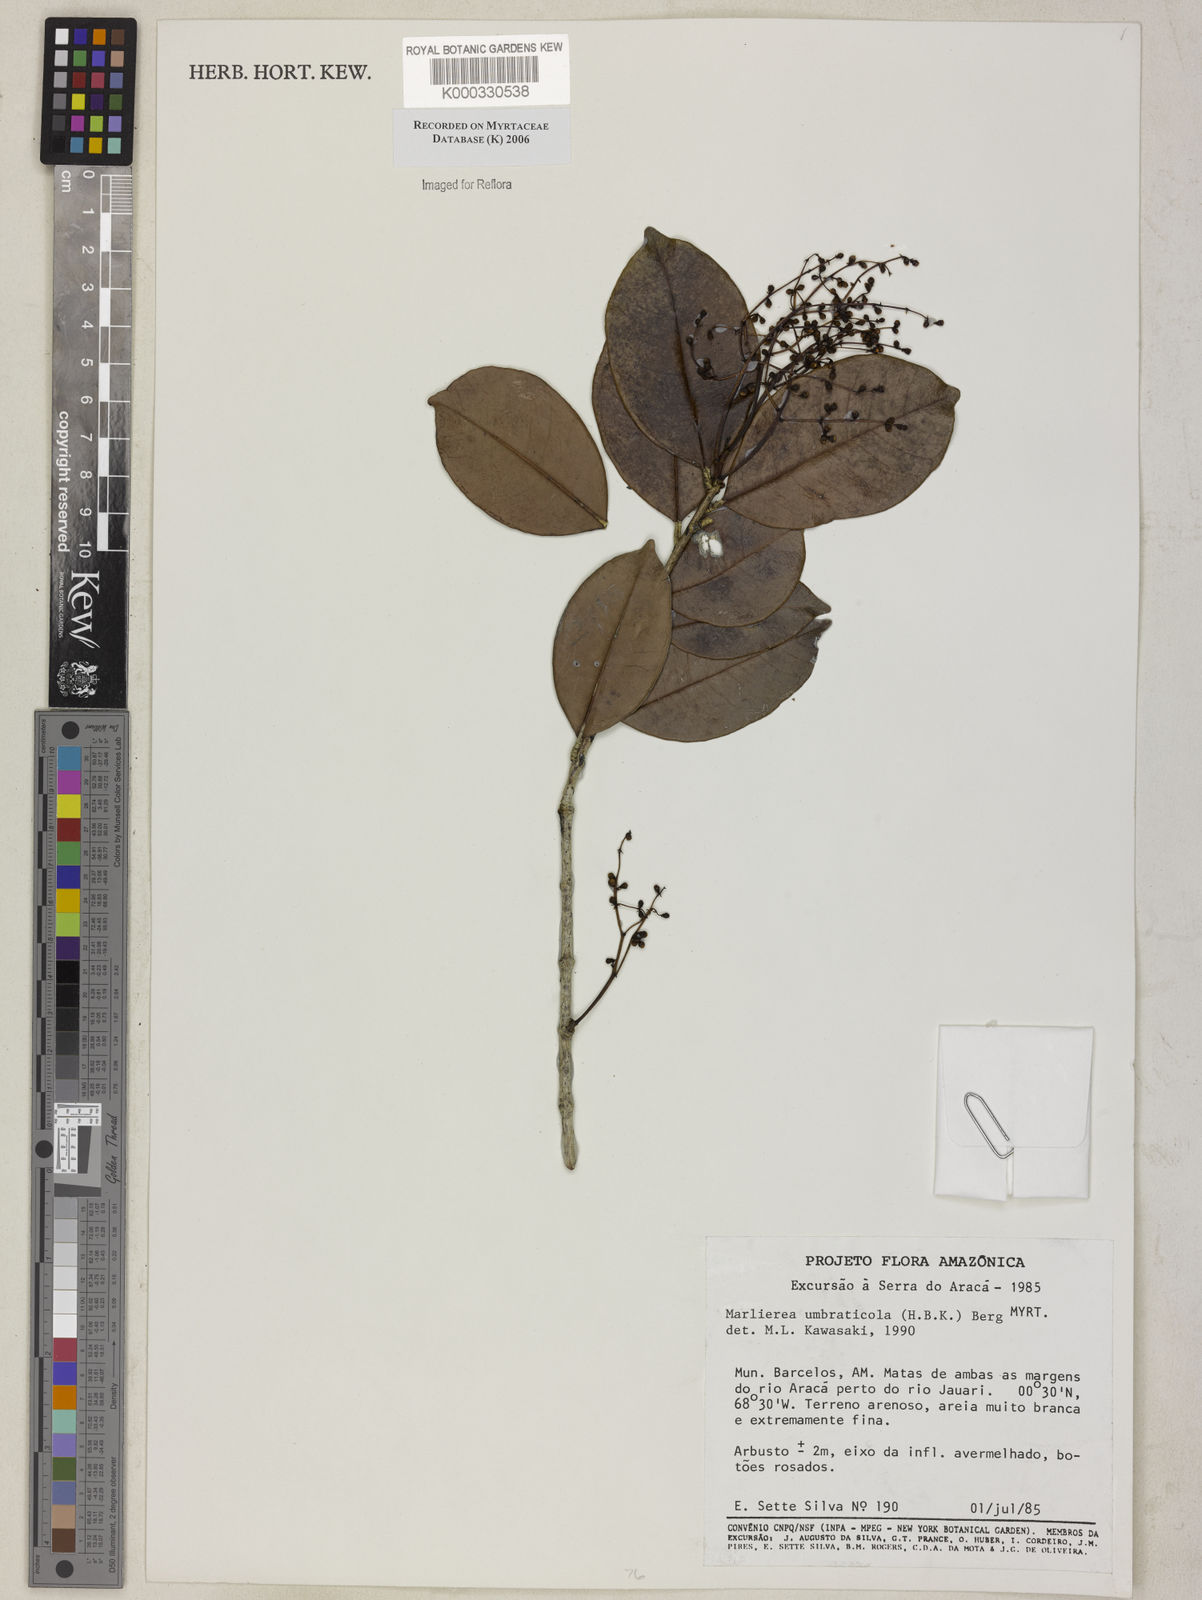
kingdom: Plantae
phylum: Tracheophyta
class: Magnoliopsida
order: Myrtales
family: Myrtaceae
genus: Myrcia
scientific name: Myrcia umbraticola
